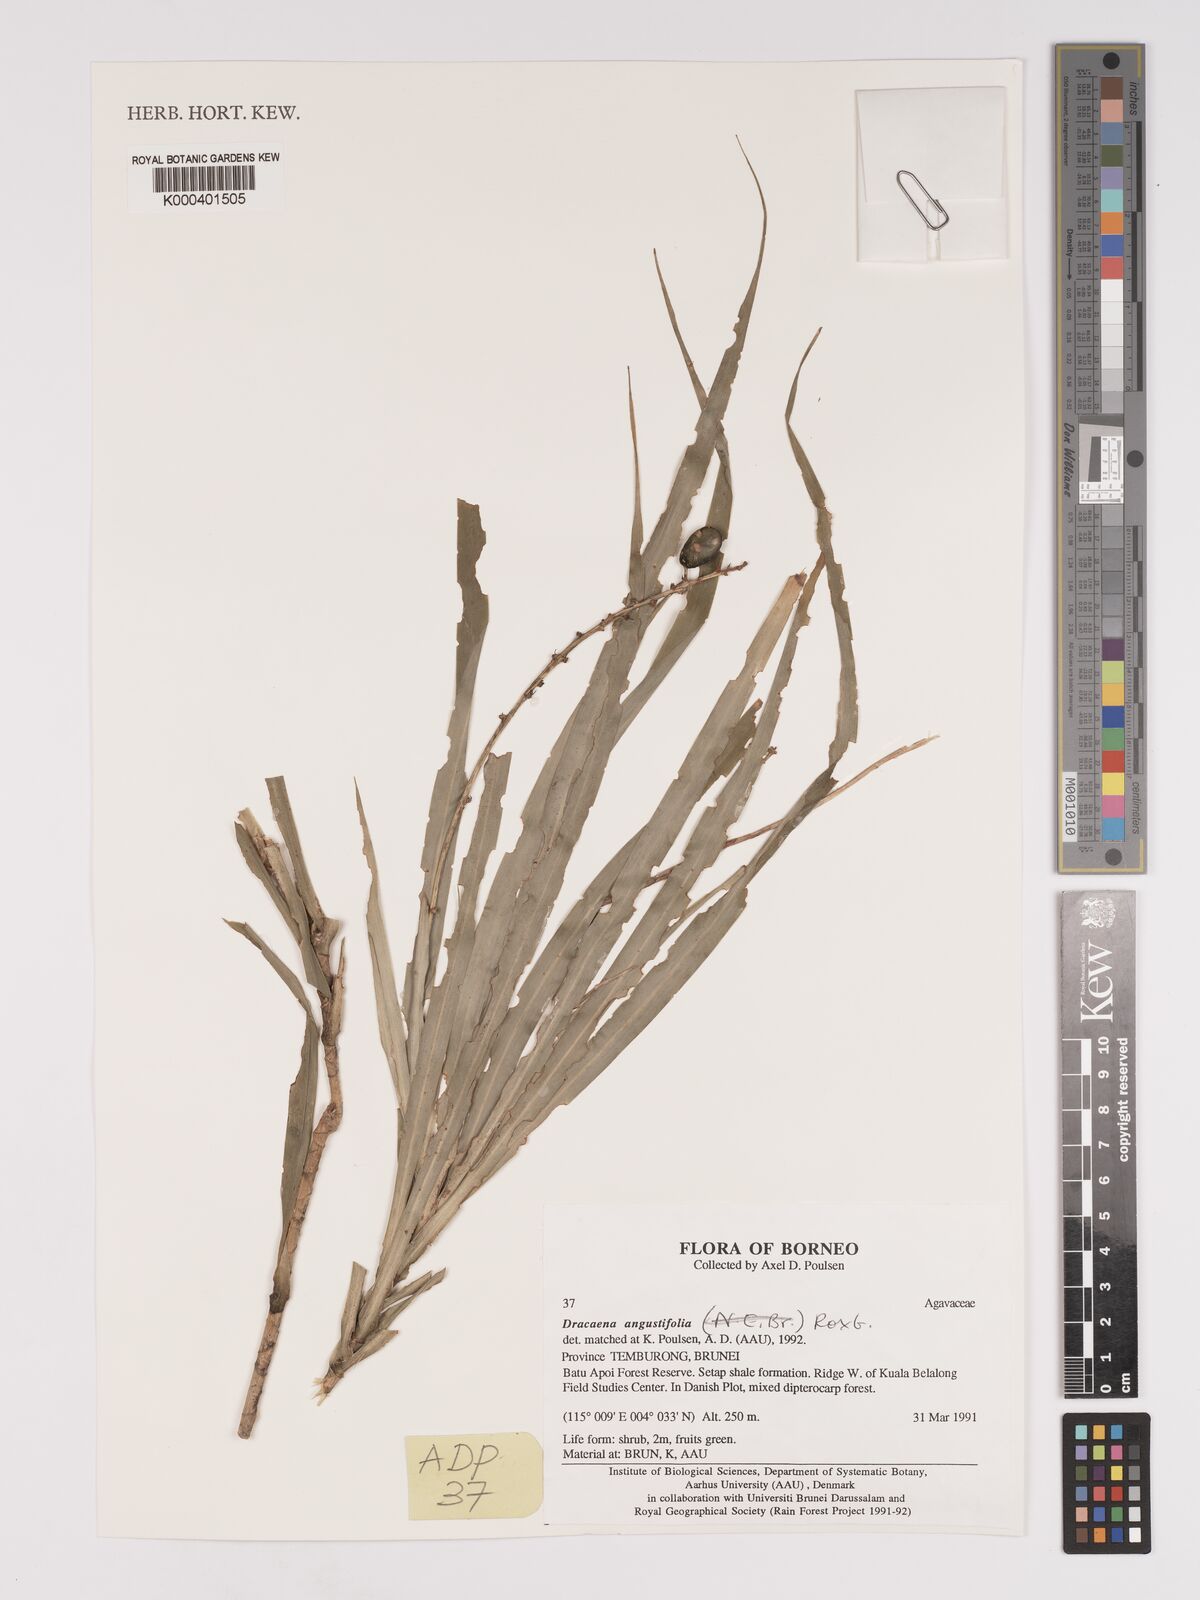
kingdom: Plantae
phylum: Tracheophyta
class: Liliopsida
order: Asparagales
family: Asparagaceae
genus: Dracaena
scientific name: Dracaena angustifolia
